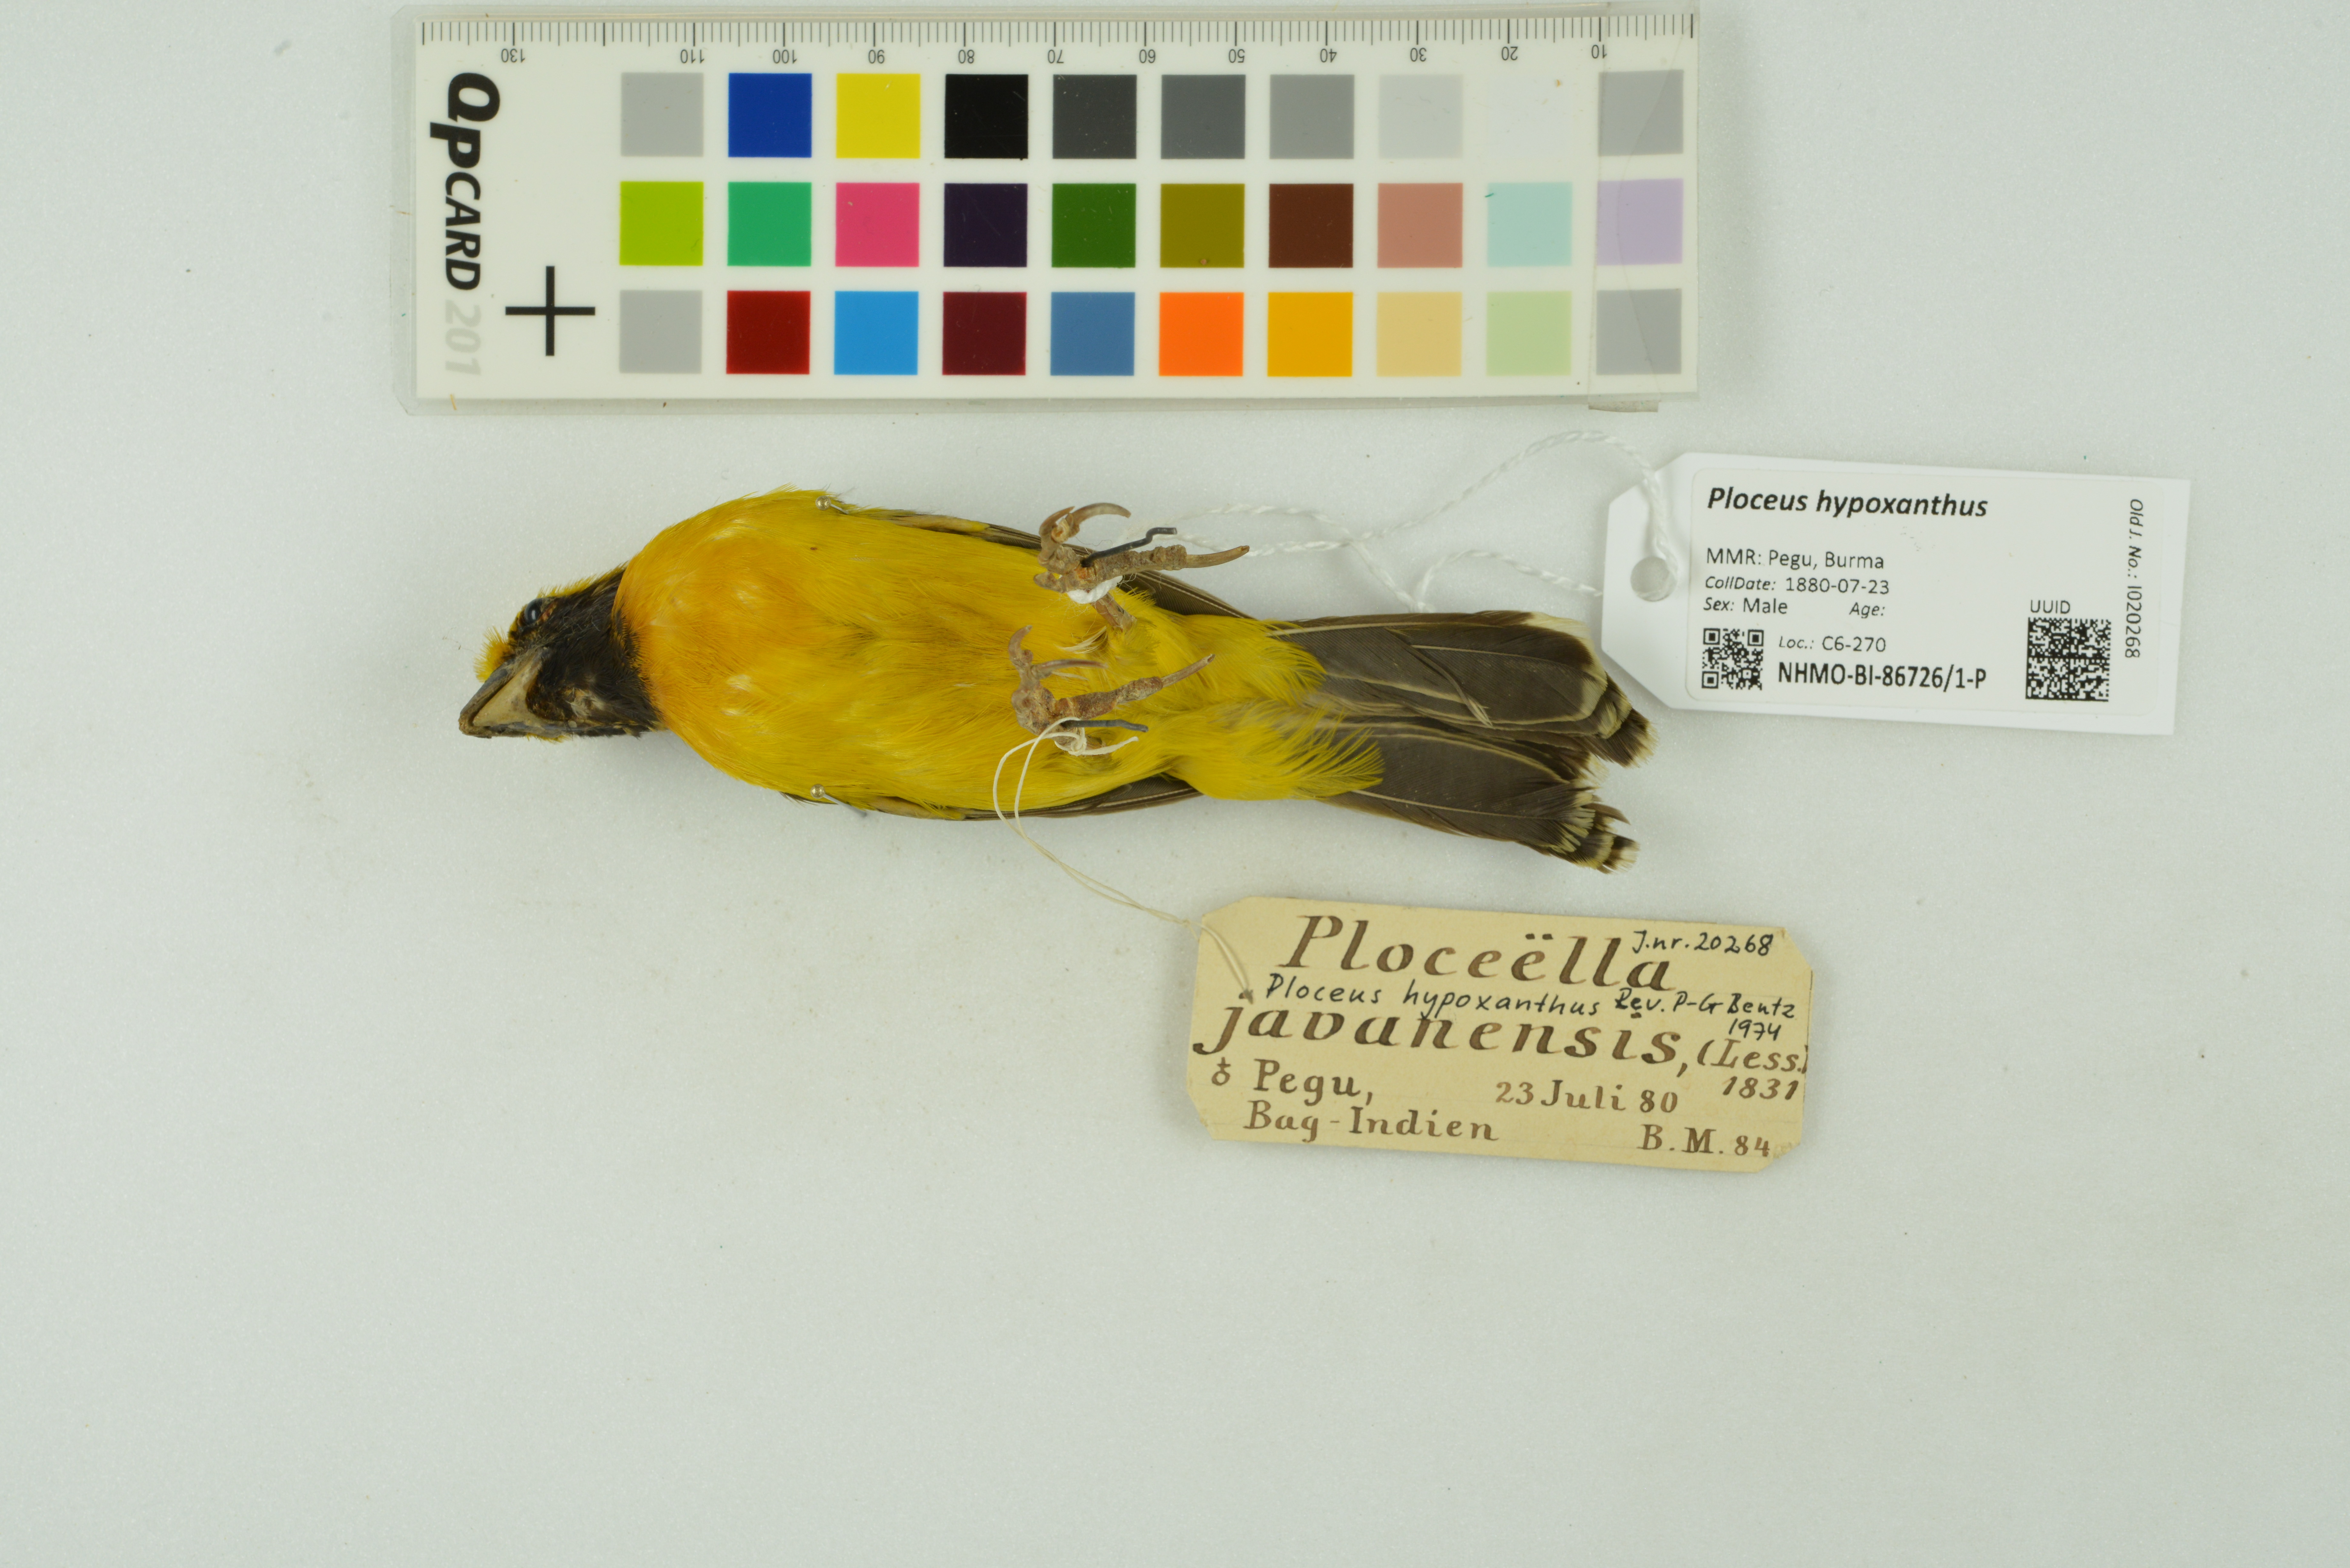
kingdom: Animalia
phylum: Chordata
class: Aves
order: Passeriformes
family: Ploceidae
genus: Ploceus
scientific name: Ploceus hypoxanthus
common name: Asian golden weaver
